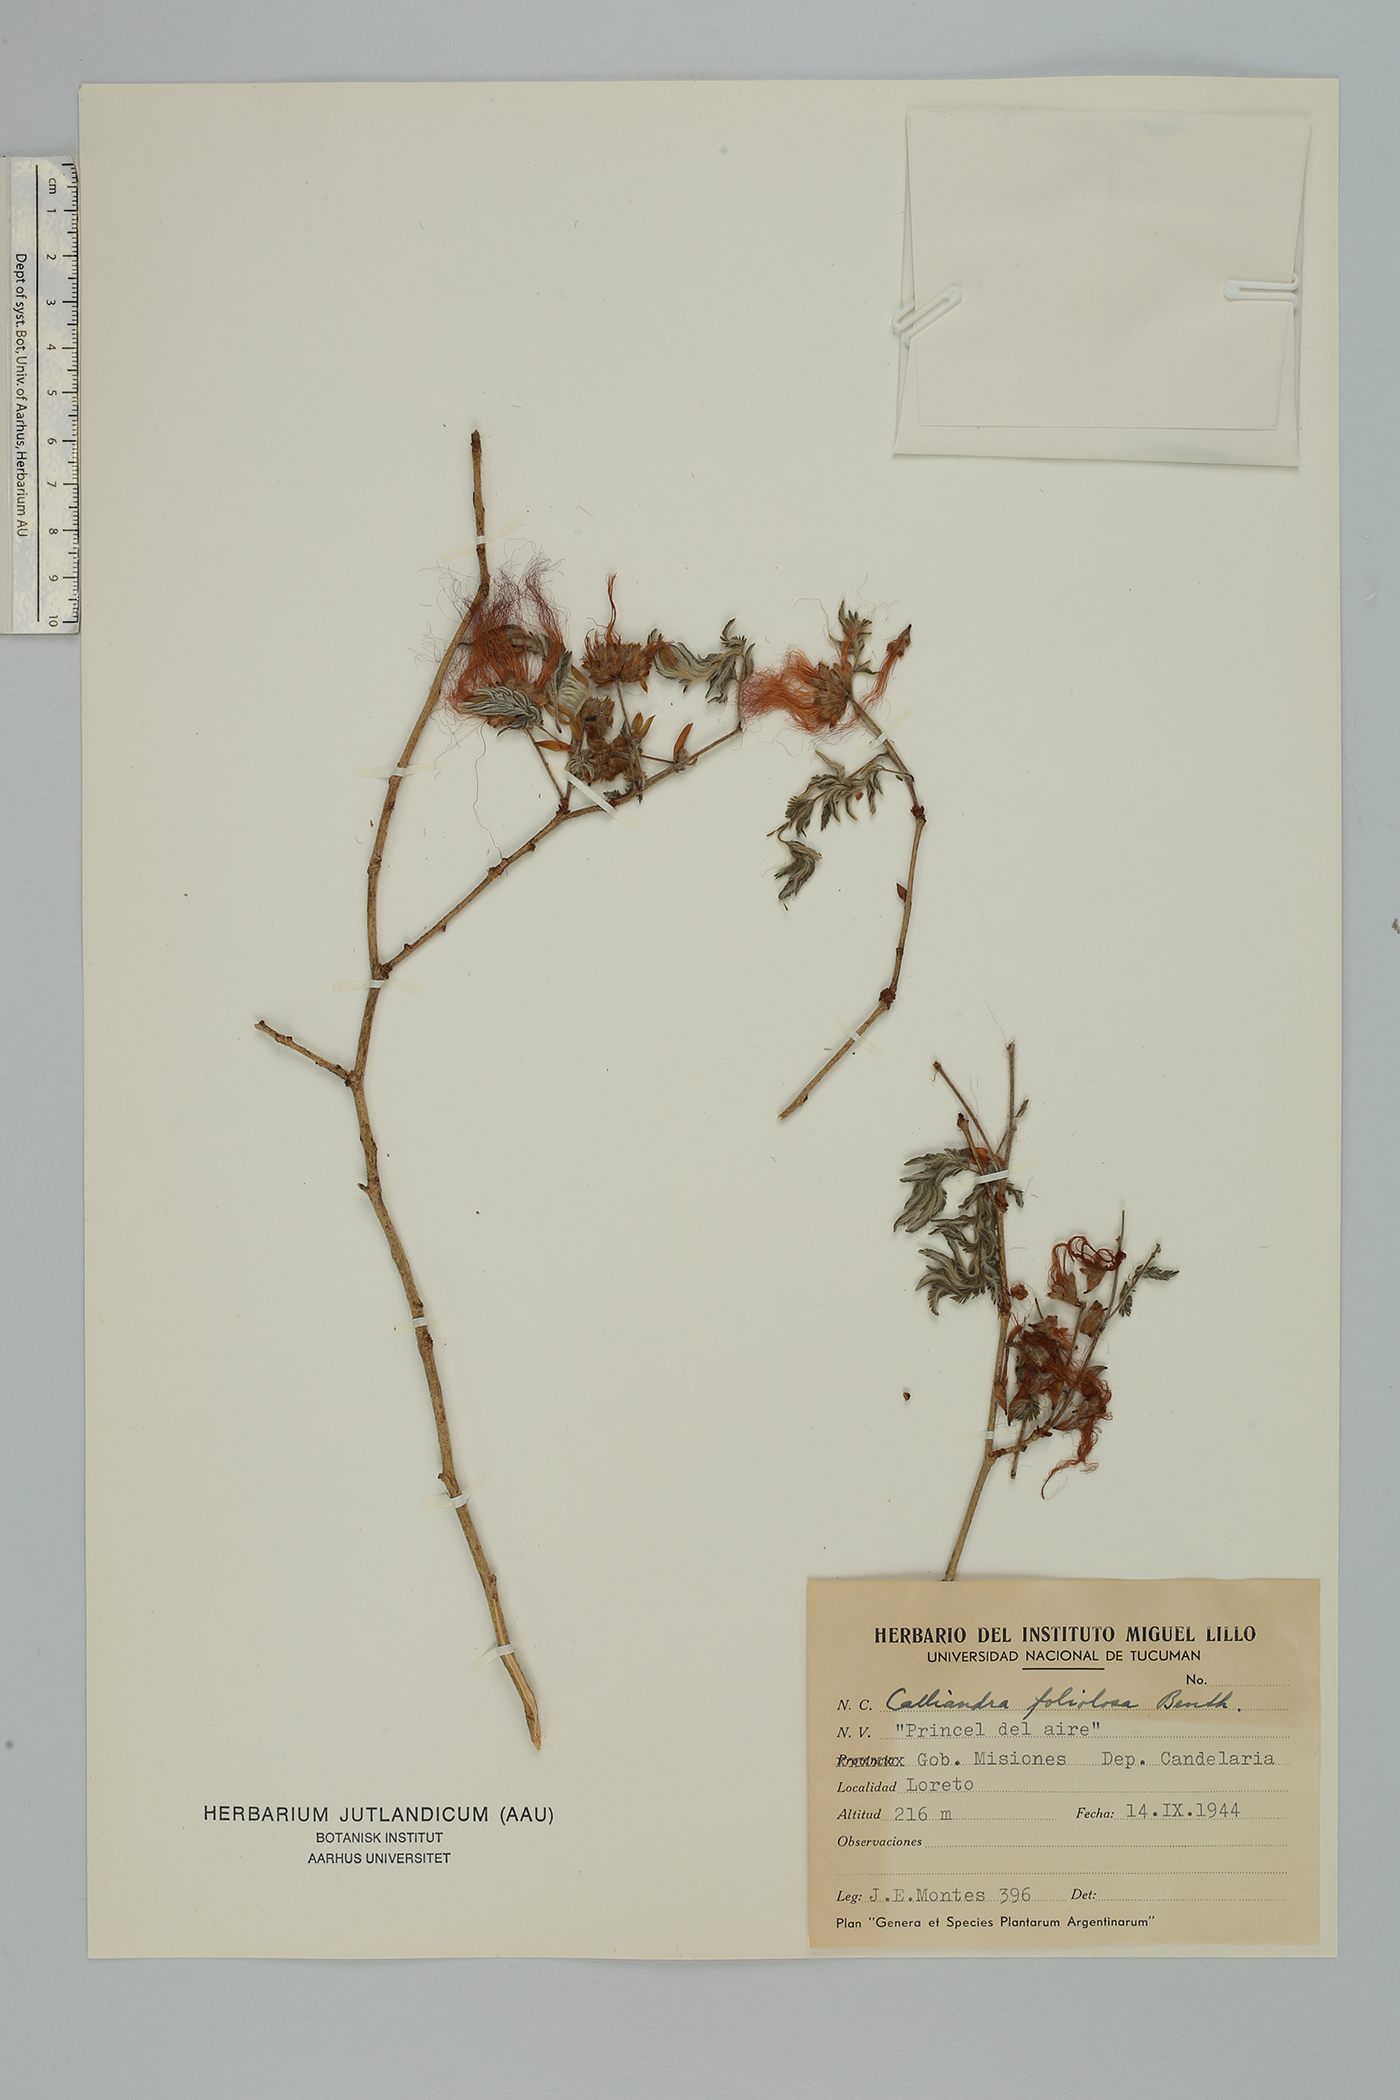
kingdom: Plantae
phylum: Tracheophyta
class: Magnoliopsida
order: Fabales
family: Fabaceae
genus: Calliandra
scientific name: Calliandra foliolosa
